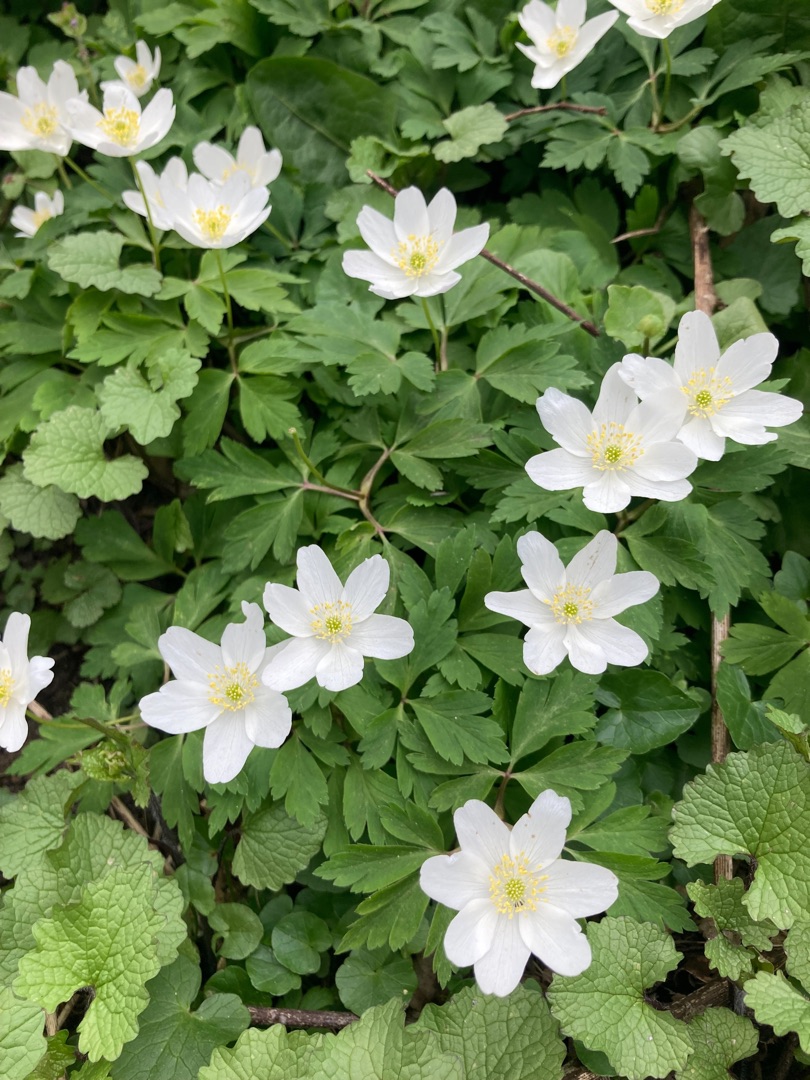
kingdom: Plantae
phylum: Tracheophyta
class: Magnoliopsida
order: Ranunculales
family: Ranunculaceae
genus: Anemone
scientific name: Anemone nemorosa
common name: Hvid anemone
